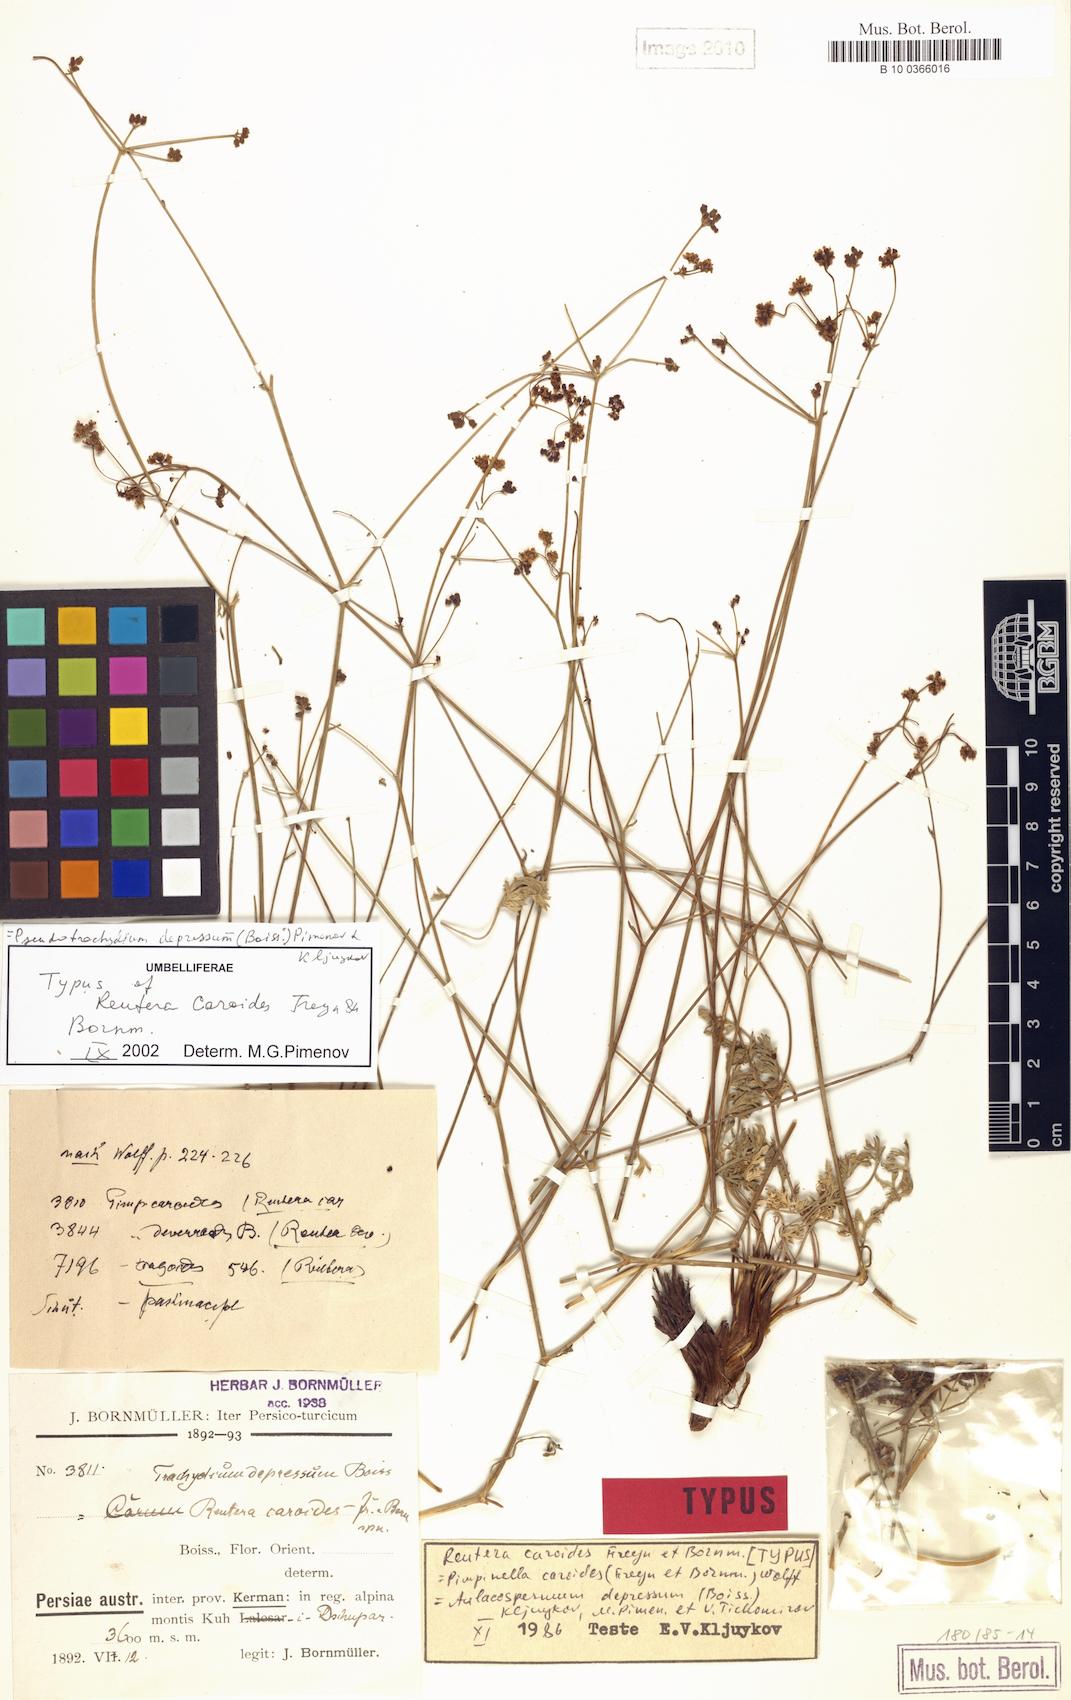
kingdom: Plantae
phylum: Tracheophyta
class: Magnoliopsida
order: Apiales
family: Apiaceae
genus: Pseudotrachydium
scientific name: Pseudotrachydium depressum
